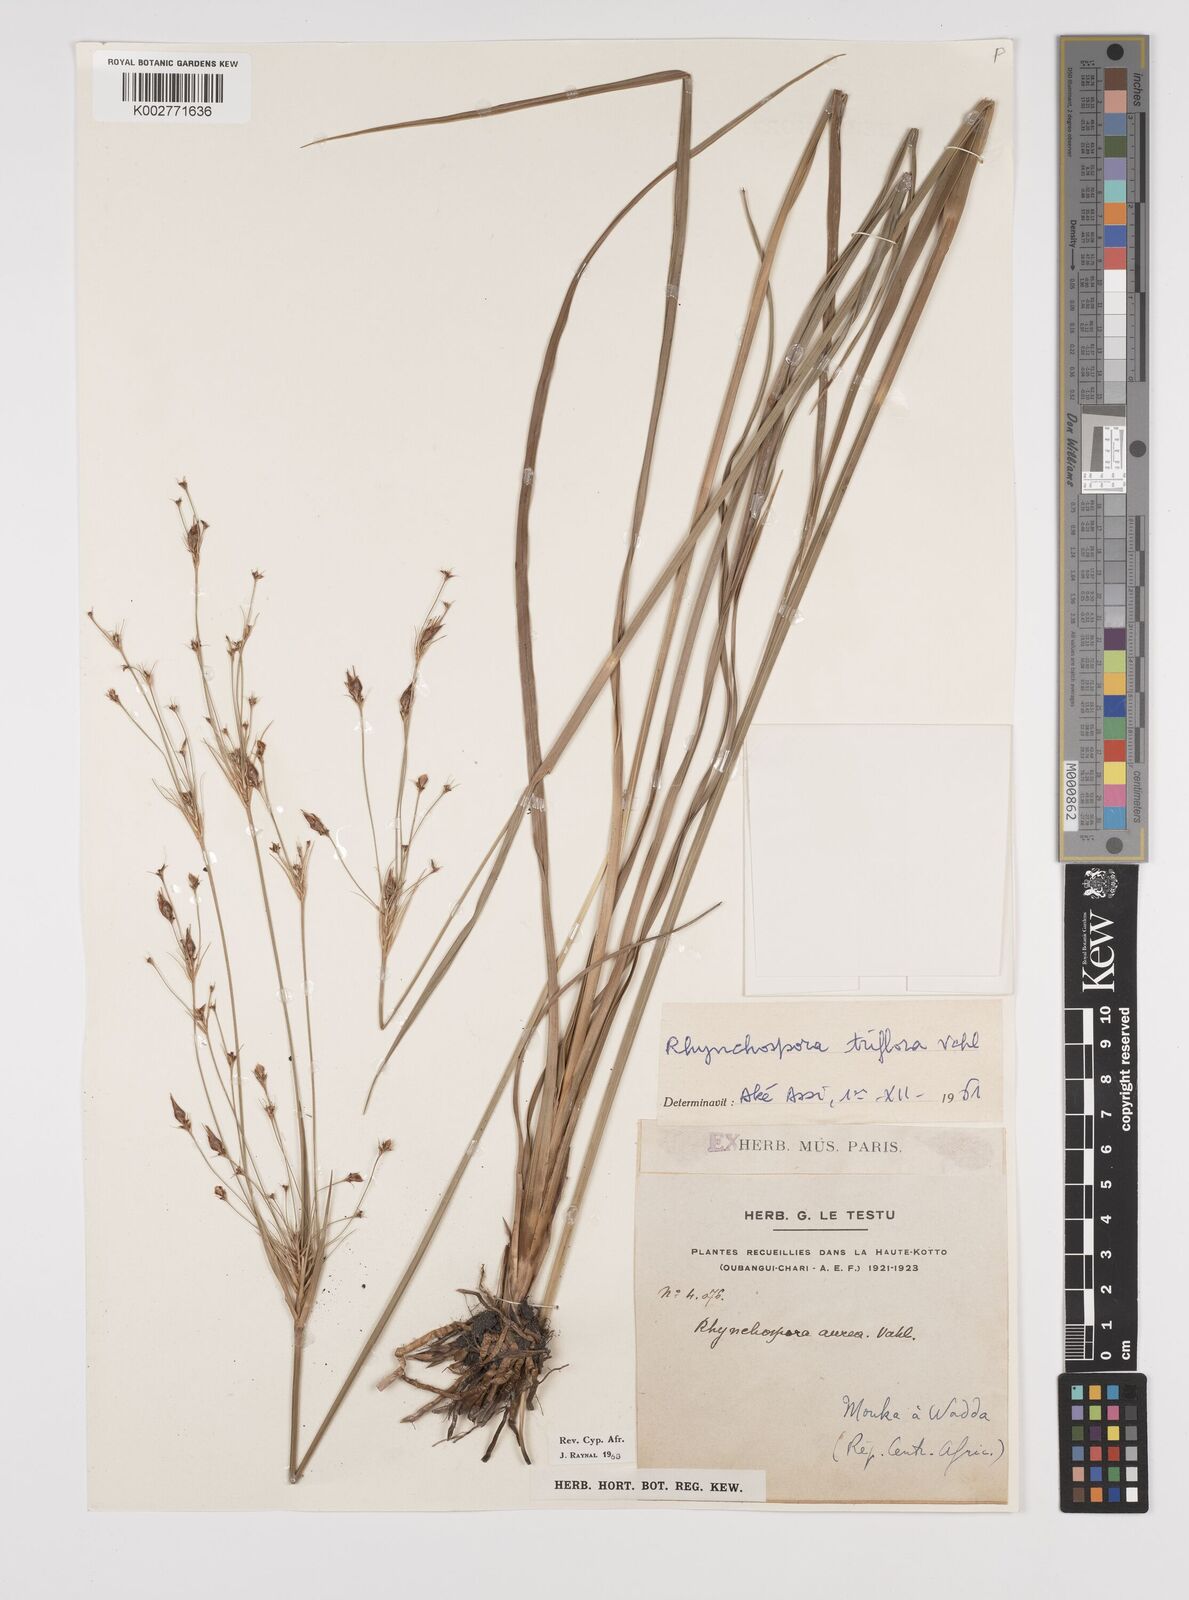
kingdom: Plantae
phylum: Tracheophyta
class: Liliopsida
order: Poales
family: Cyperaceae
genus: Rhynchospora
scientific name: Rhynchospora triflora
